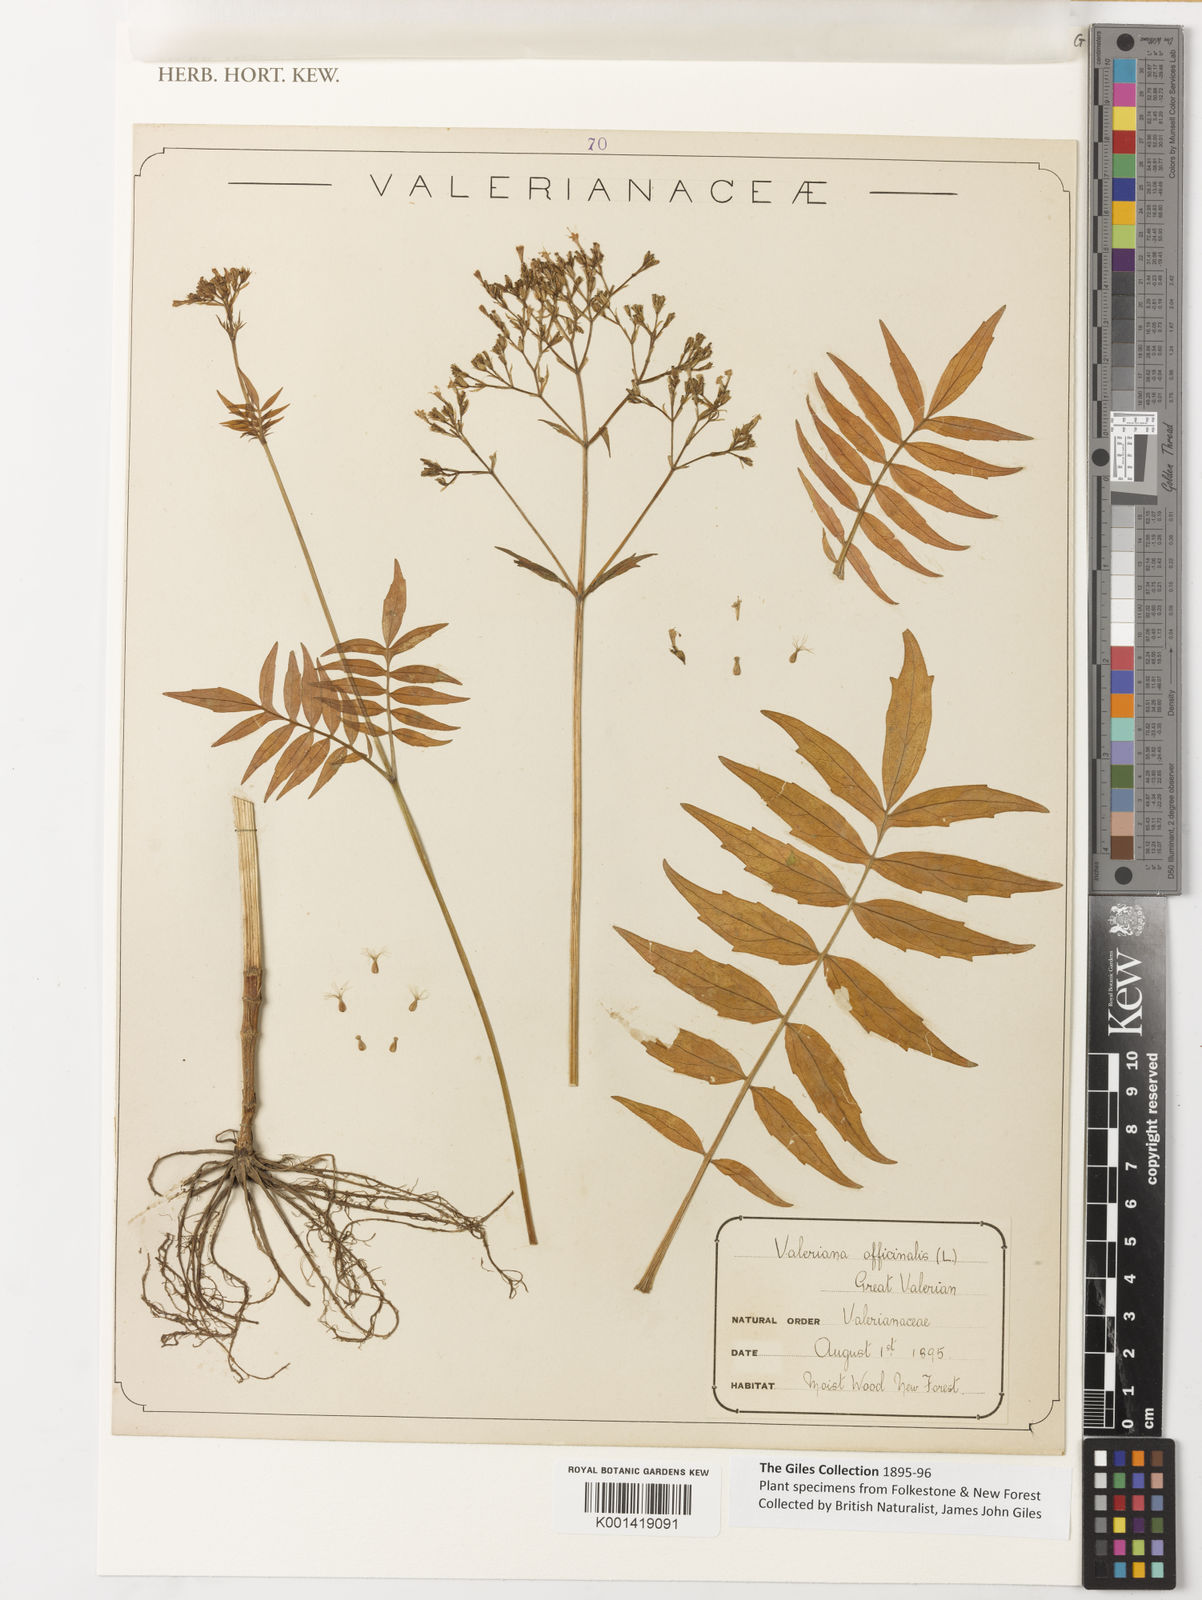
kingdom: Plantae
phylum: Tracheophyta
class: Magnoliopsida
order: Dipsacales
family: Caprifoliaceae
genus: Valeriana
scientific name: Valeriana officinalis
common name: Common valerian
